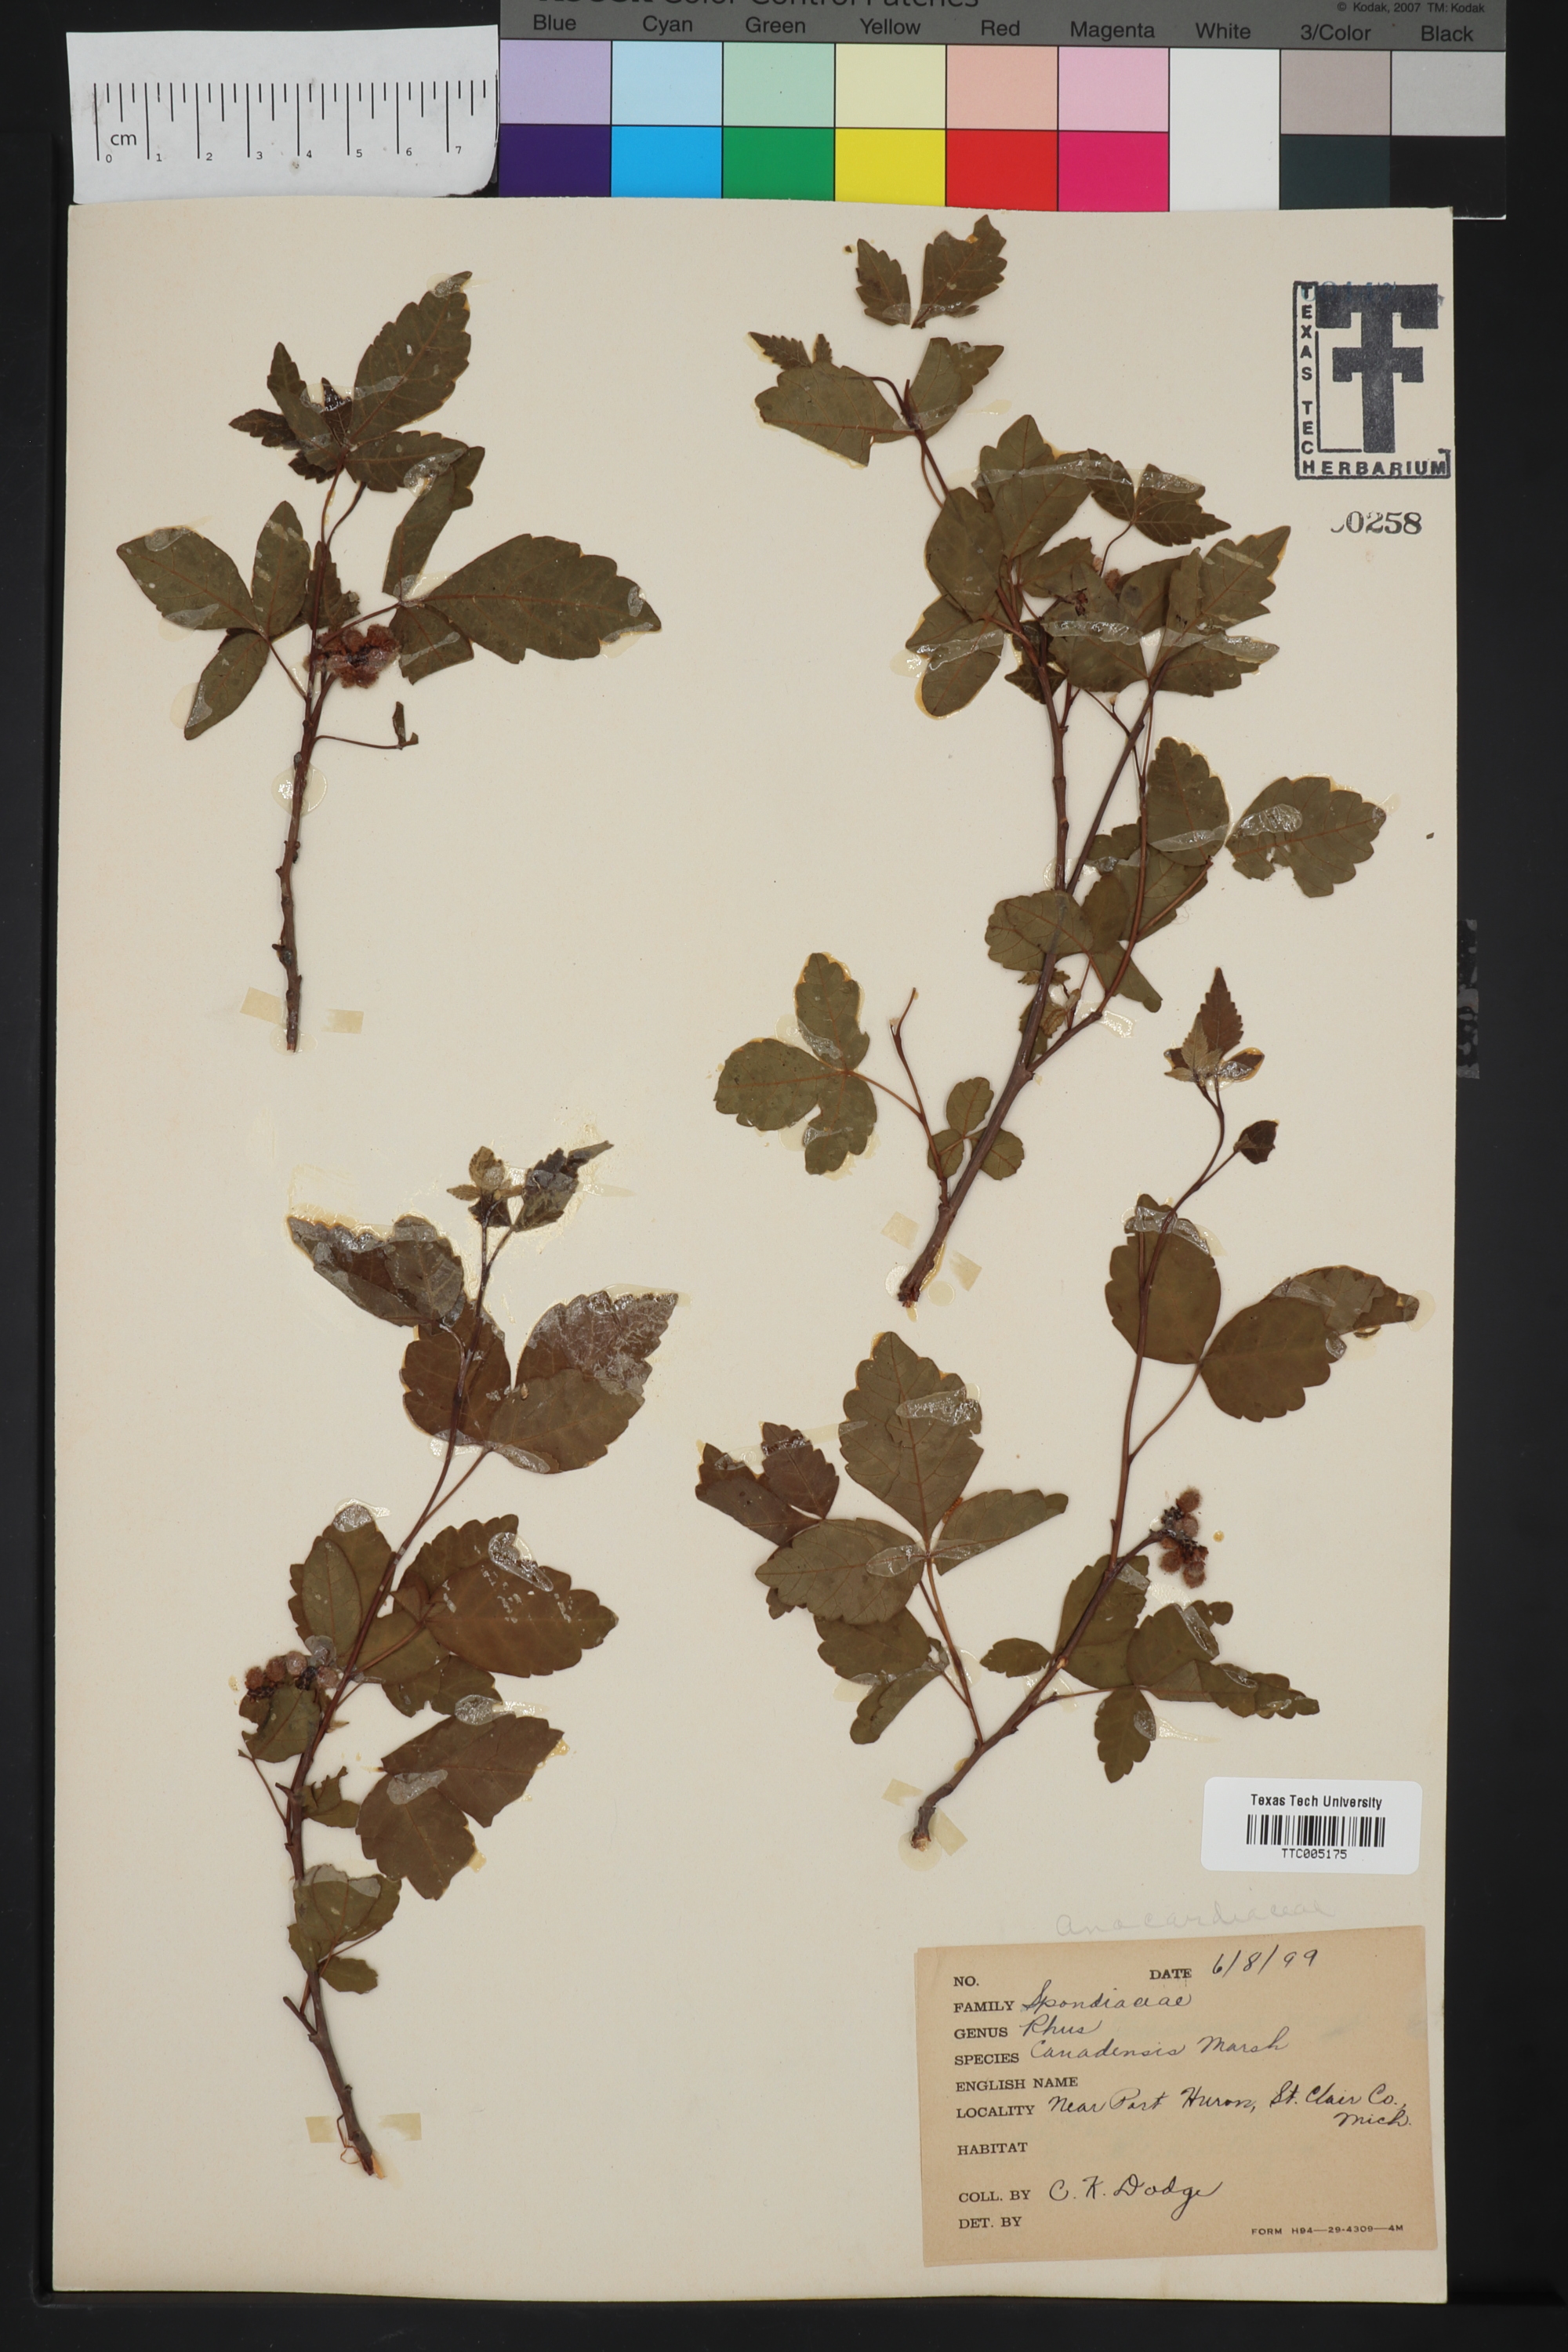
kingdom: Plantae
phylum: Tracheophyta
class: Magnoliopsida
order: Sapindales
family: Anacardiaceae
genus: Rhus
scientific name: Rhus typhina
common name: Staghorn sumac
